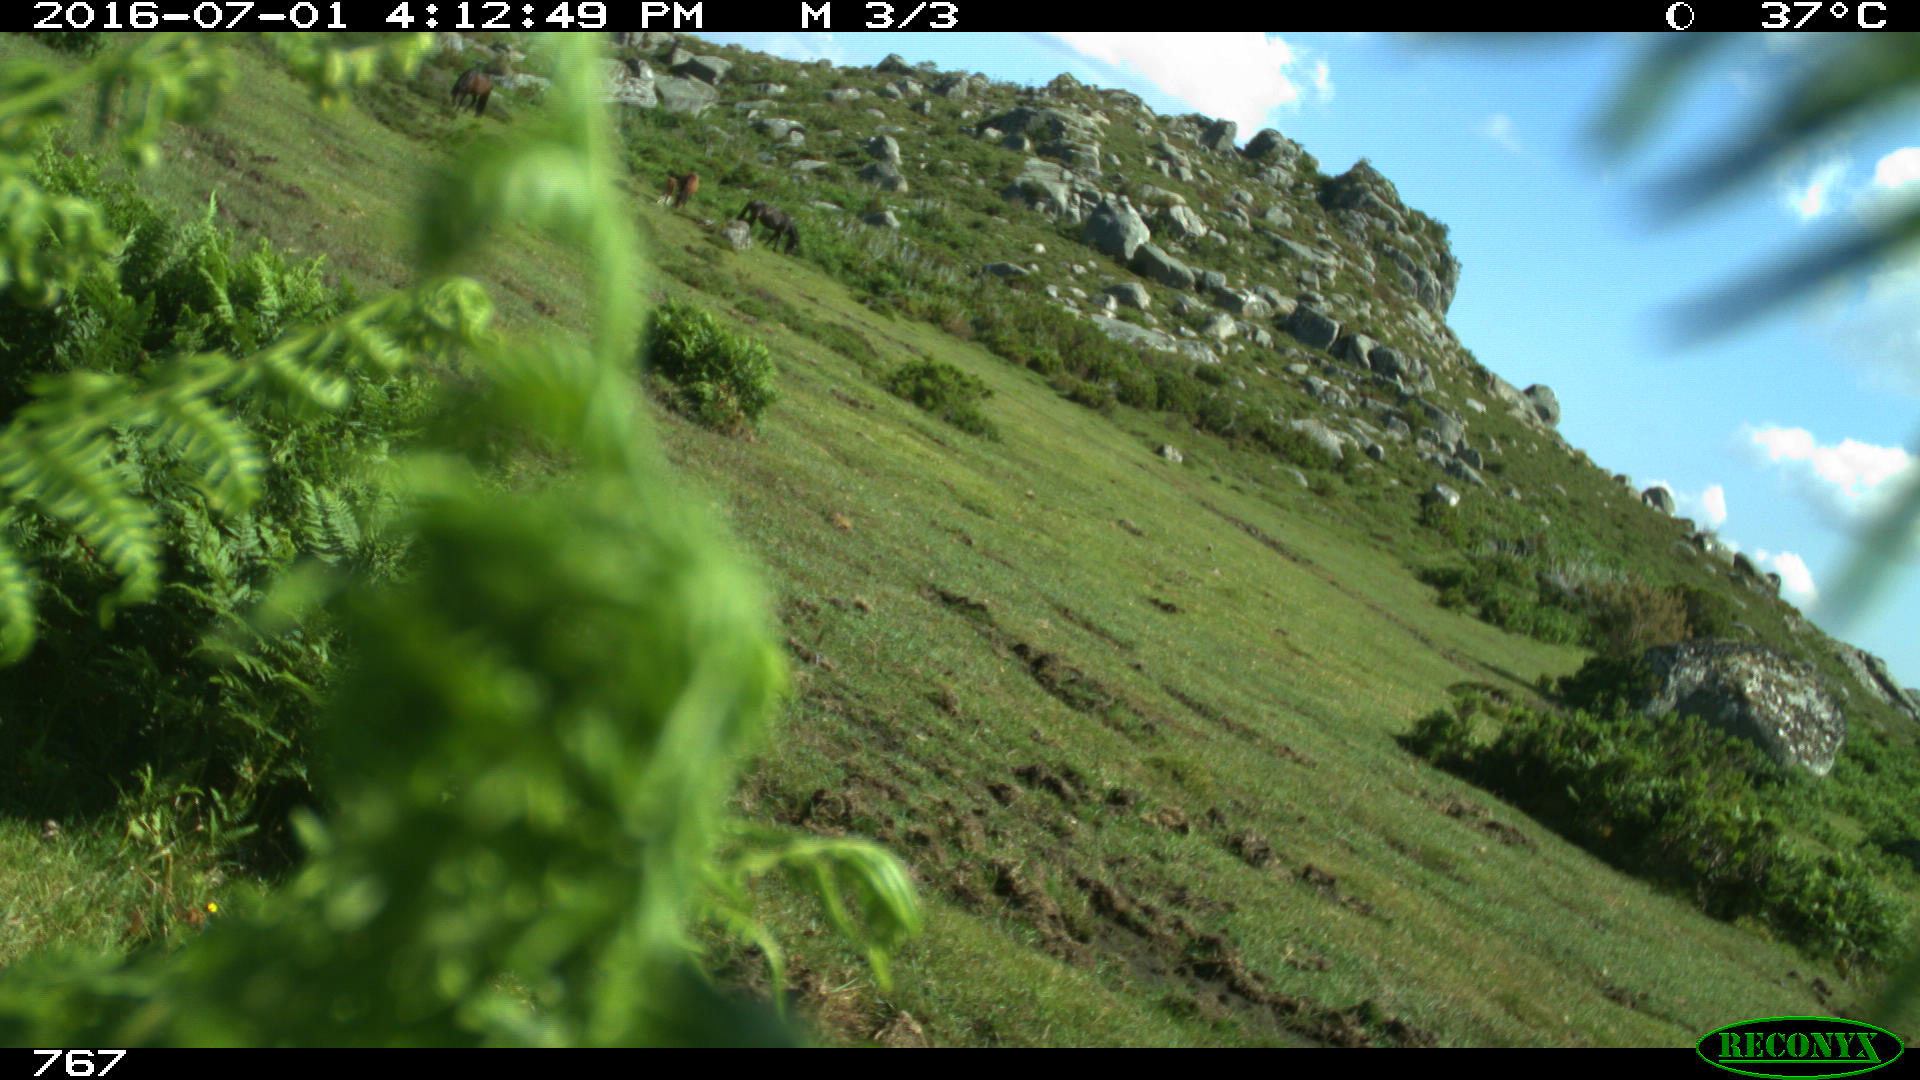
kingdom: Animalia
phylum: Chordata
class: Mammalia
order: Perissodactyla
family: Equidae
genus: Equus
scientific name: Equus caballus
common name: Horse
